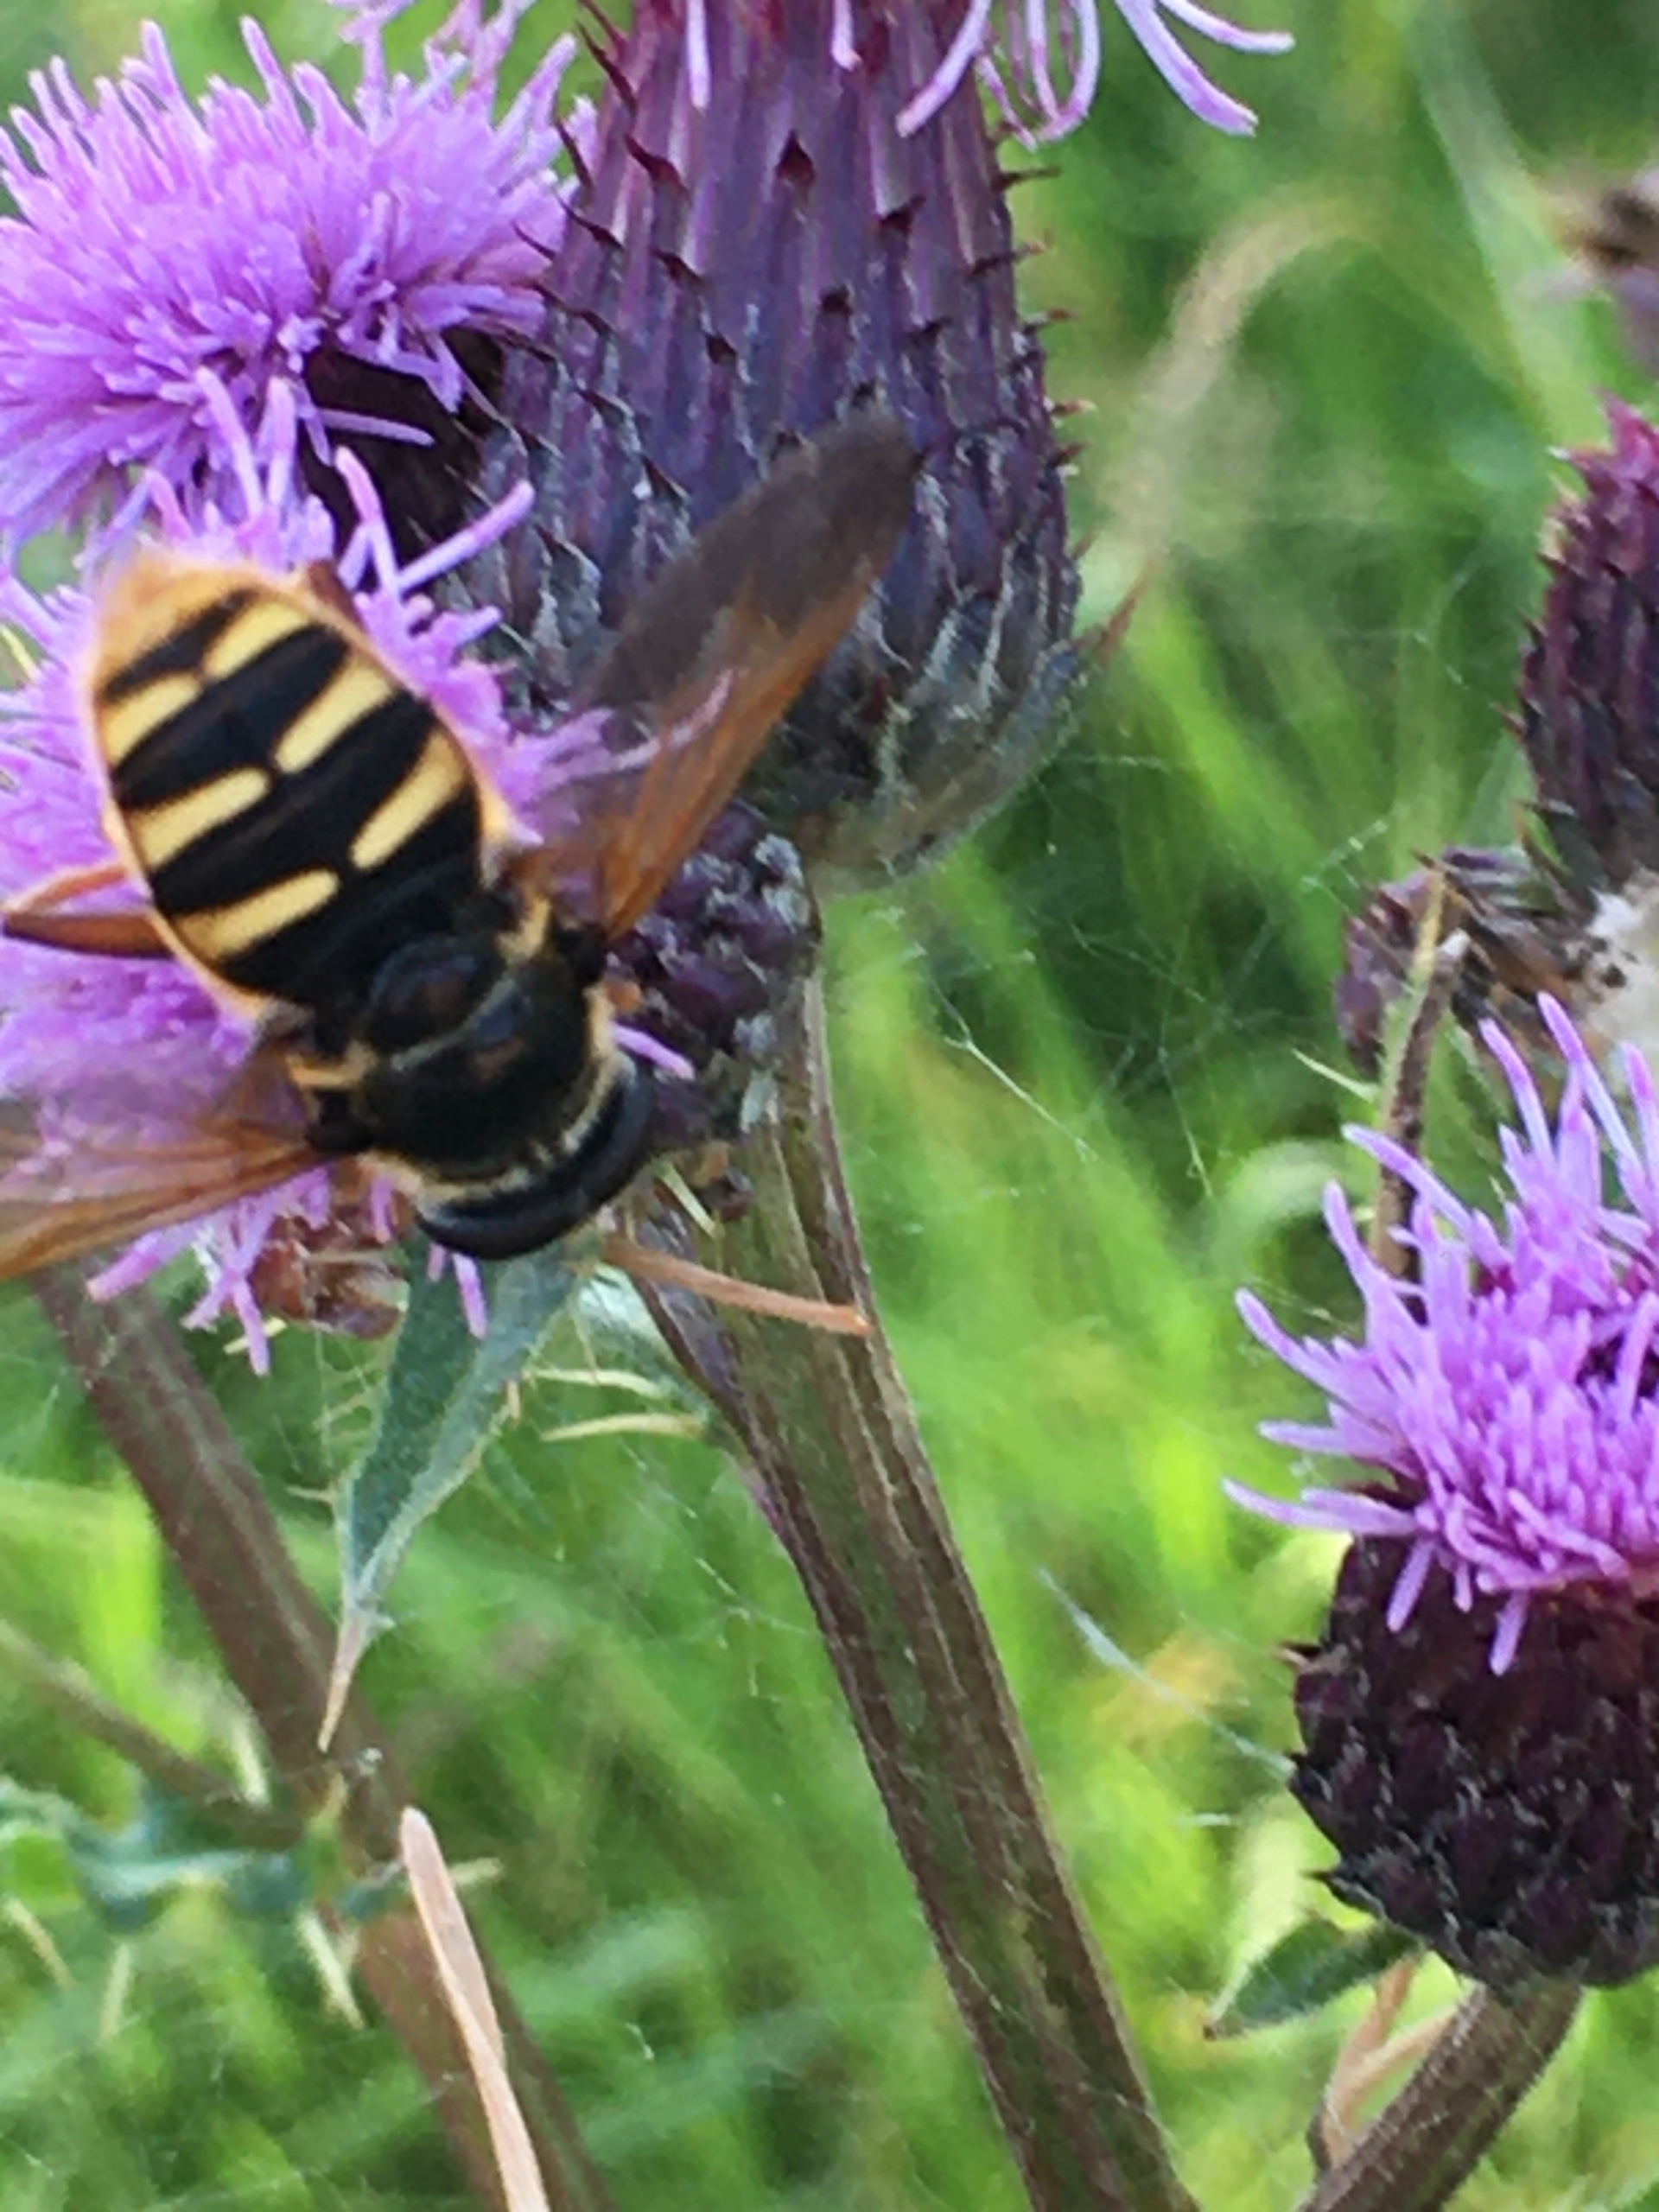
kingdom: Animalia
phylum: Arthropoda
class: Insecta
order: Diptera
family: Syrphidae
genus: Sericomyia
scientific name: Sericomyia silentis
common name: Tørve-silkesvirreflue
